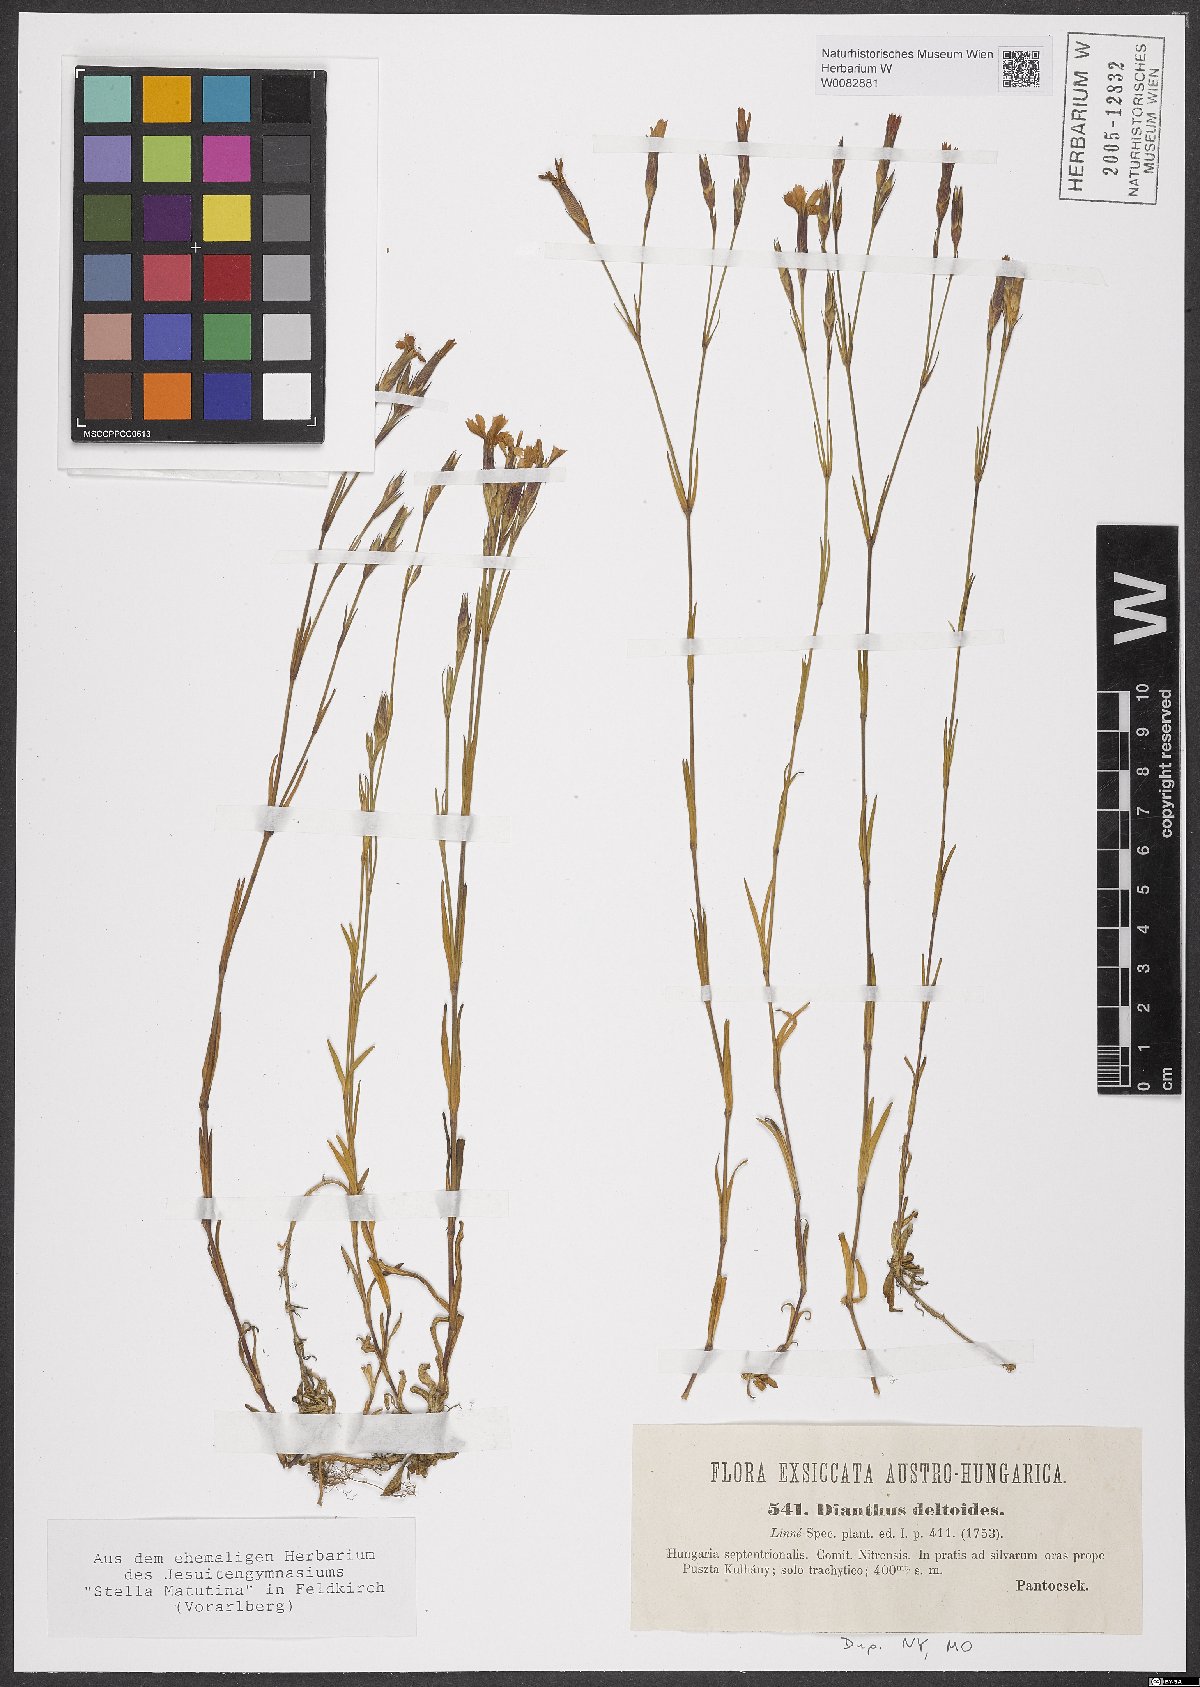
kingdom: Plantae
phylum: Tracheophyta
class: Magnoliopsida
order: Caryophyllales
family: Caryophyllaceae
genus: Dianthus
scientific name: Dianthus deltoides
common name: Maiden pink
